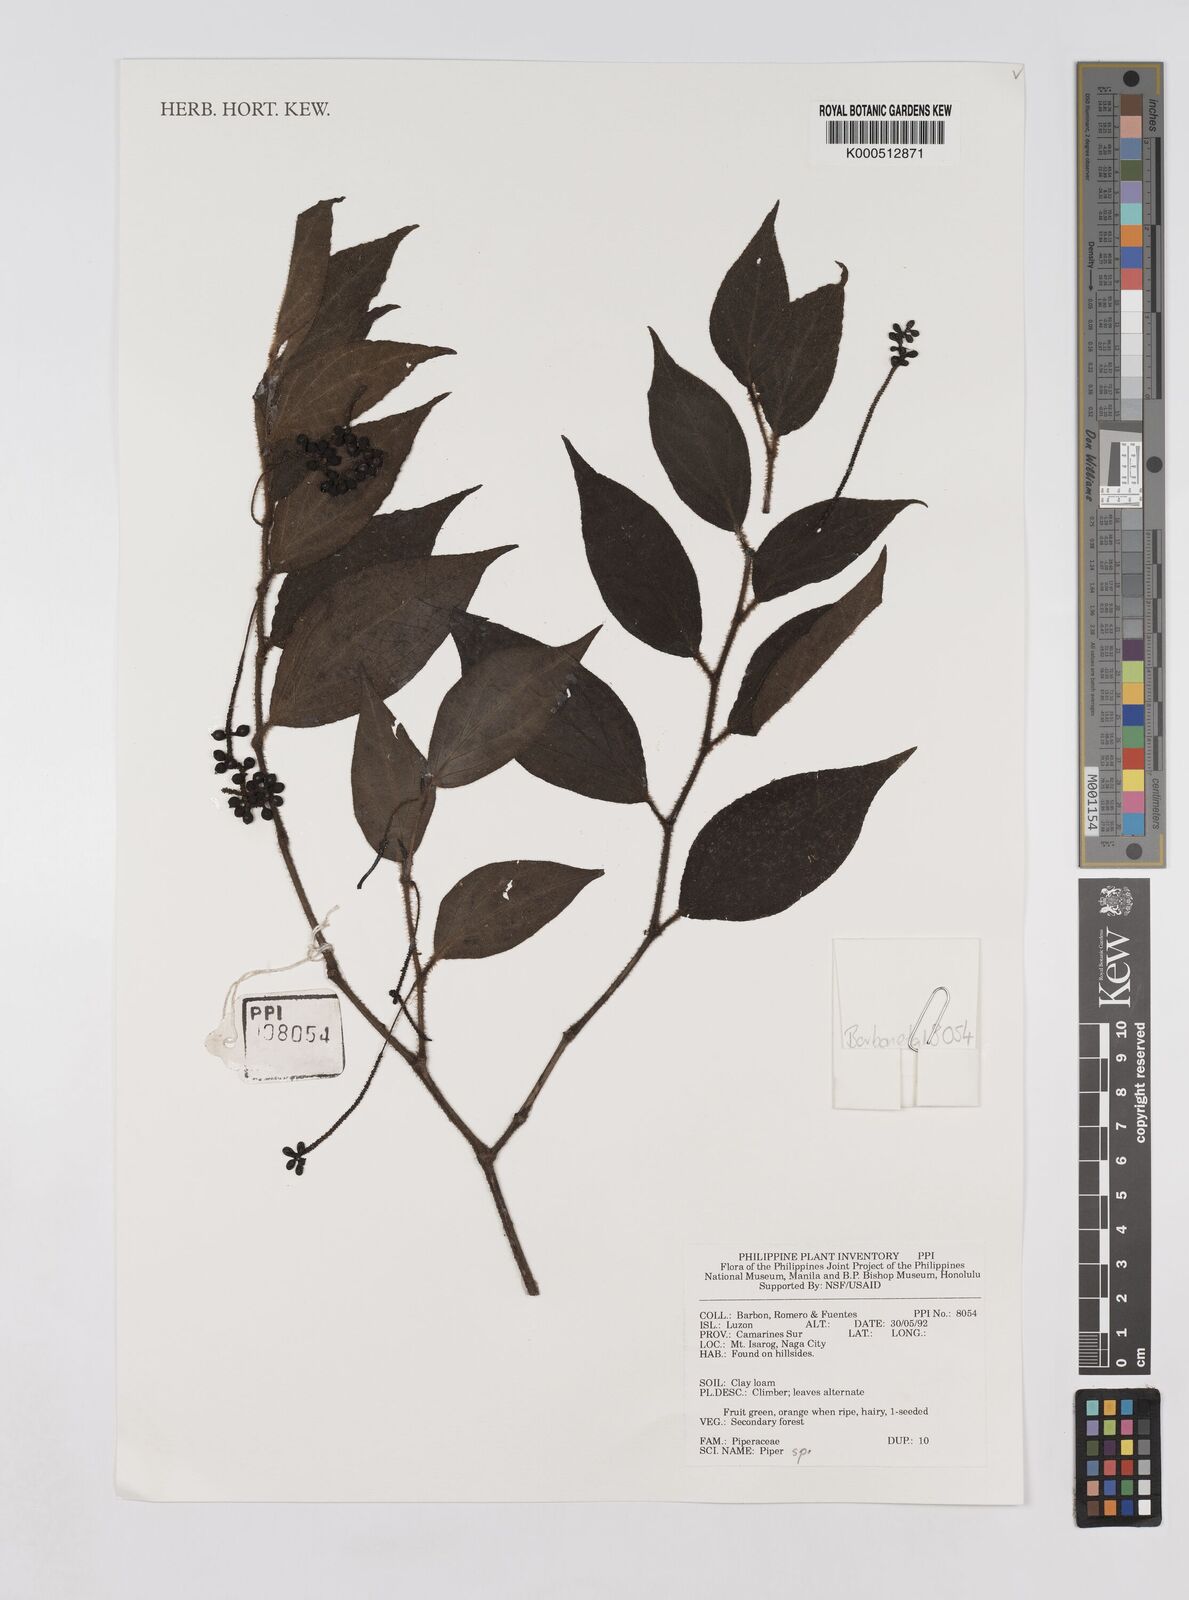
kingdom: Plantae
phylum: Tracheophyta
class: Magnoliopsida
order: Piperales
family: Piperaceae
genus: Piper
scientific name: Piper
